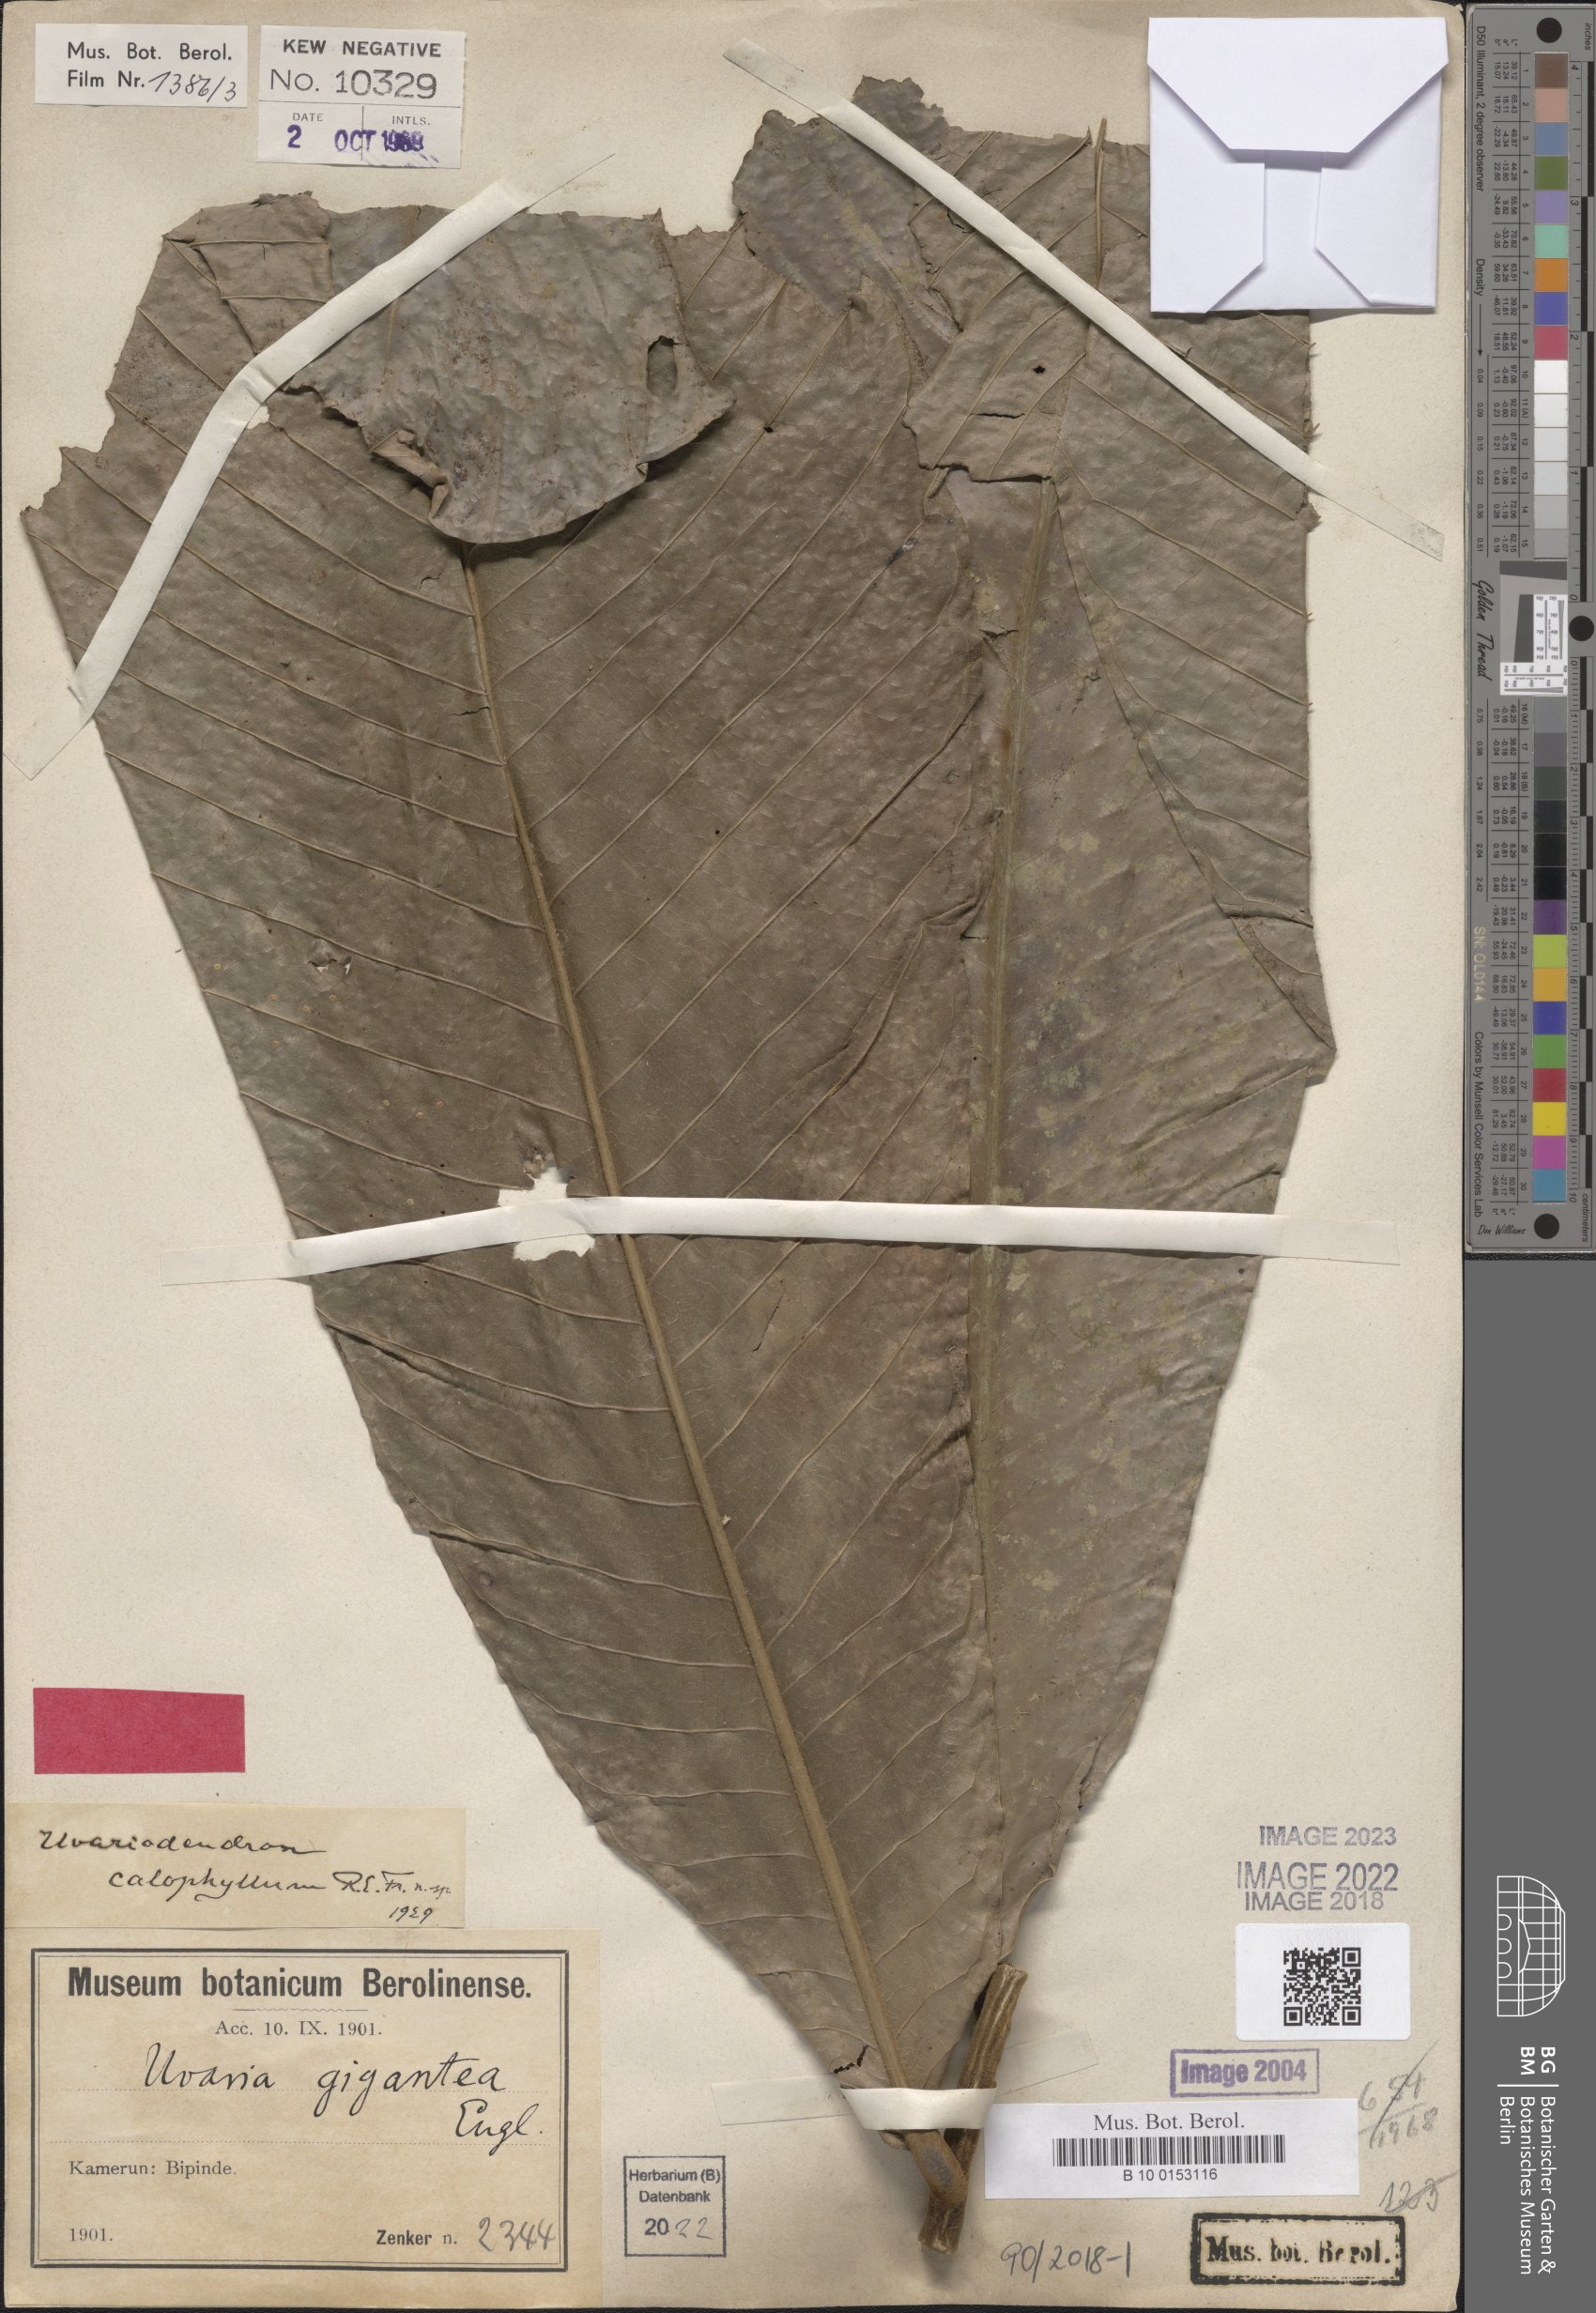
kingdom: Plantae
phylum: Tracheophyta
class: Magnoliopsida
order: Magnoliales
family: Annonaceae
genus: Uvariodendron
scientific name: Uvariodendron calophyllum
